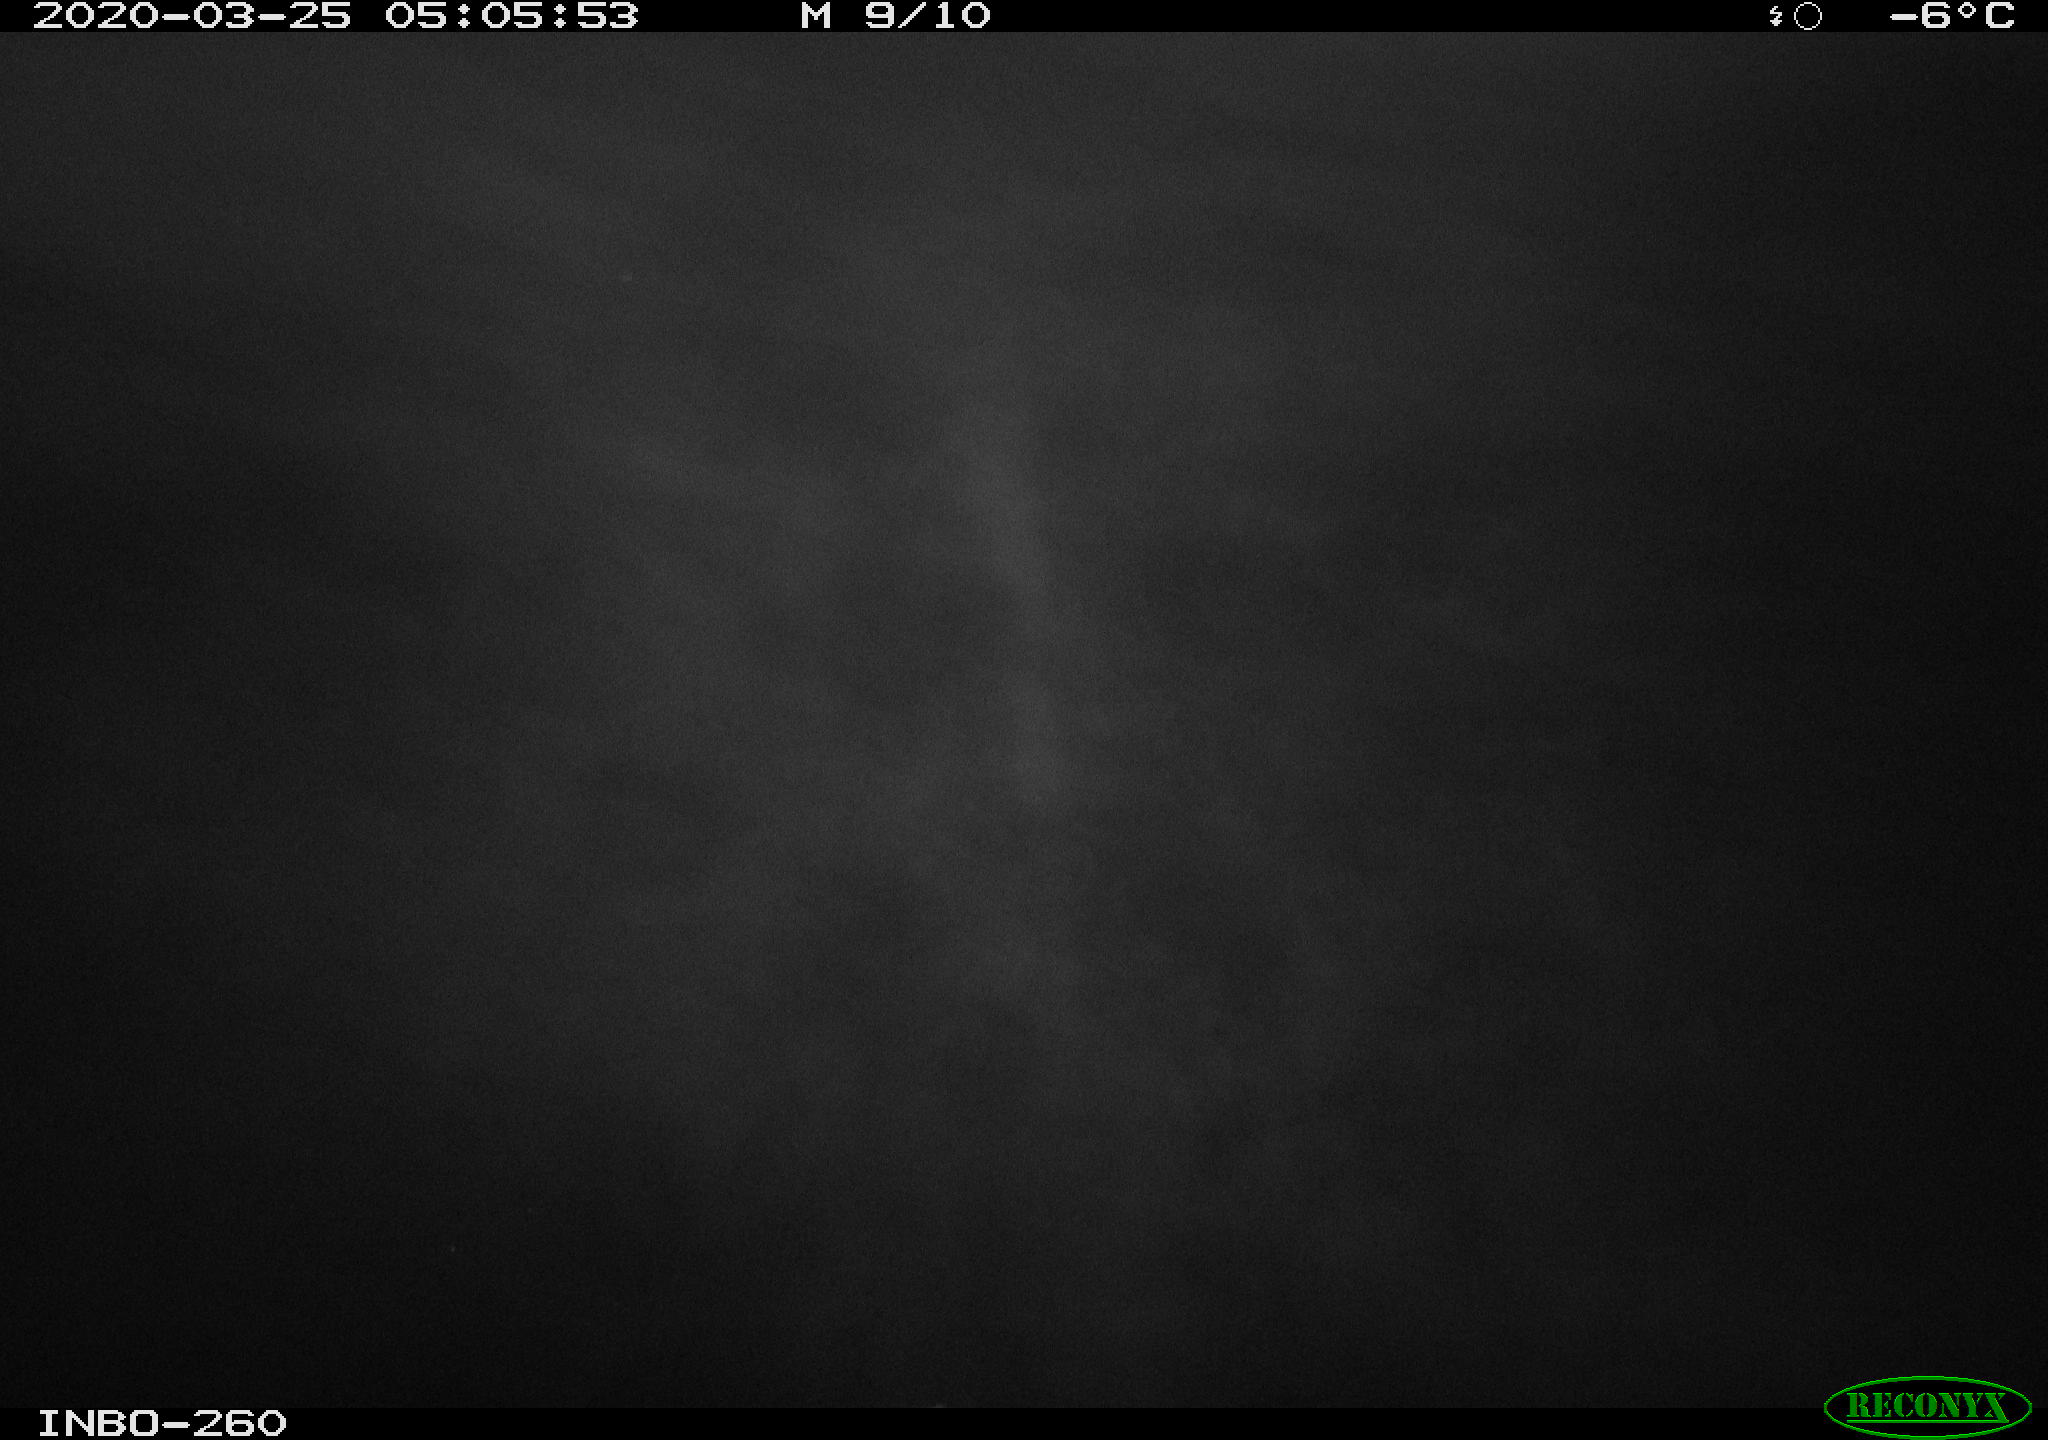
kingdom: Animalia
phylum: Chordata
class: Aves
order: Anseriformes
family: Anatidae
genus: Anas
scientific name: Anas platyrhynchos
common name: Mallard
